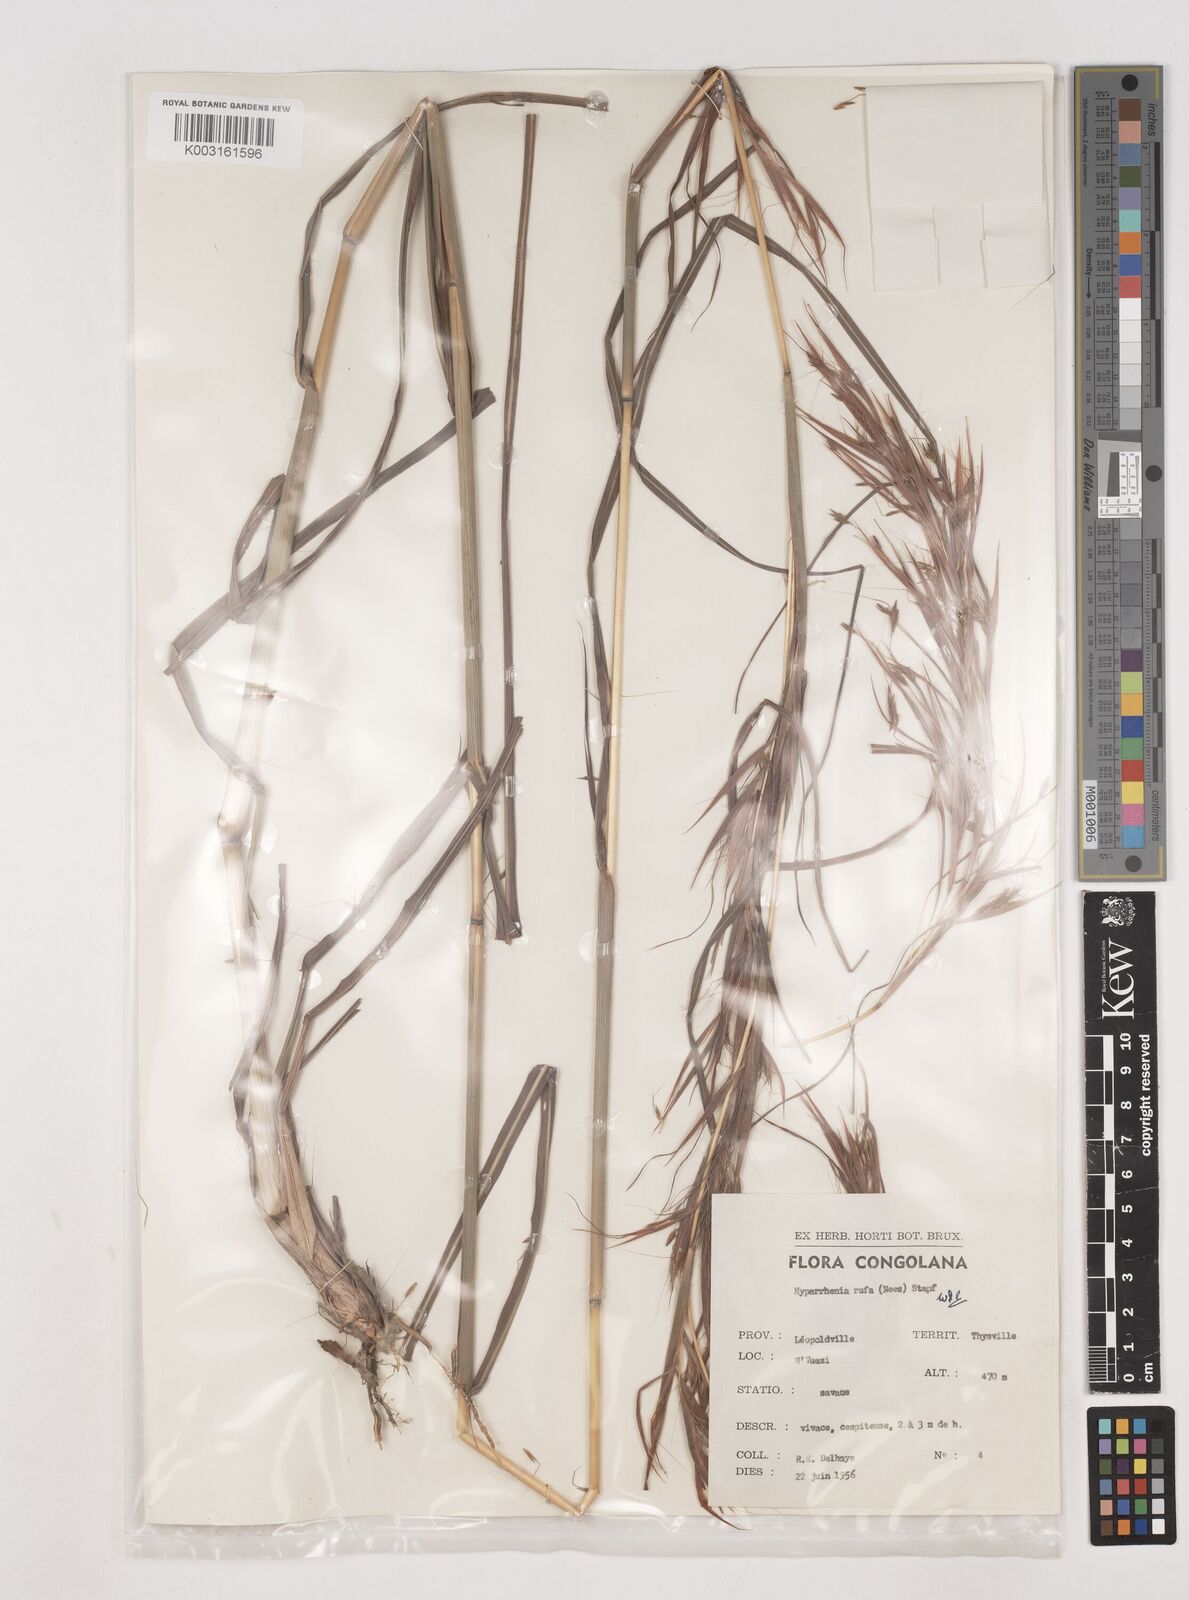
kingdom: Plantae
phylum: Tracheophyta
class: Liliopsida
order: Poales
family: Poaceae
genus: Hyparrhenia
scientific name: Hyparrhenia rufa
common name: Jaraguagrass
